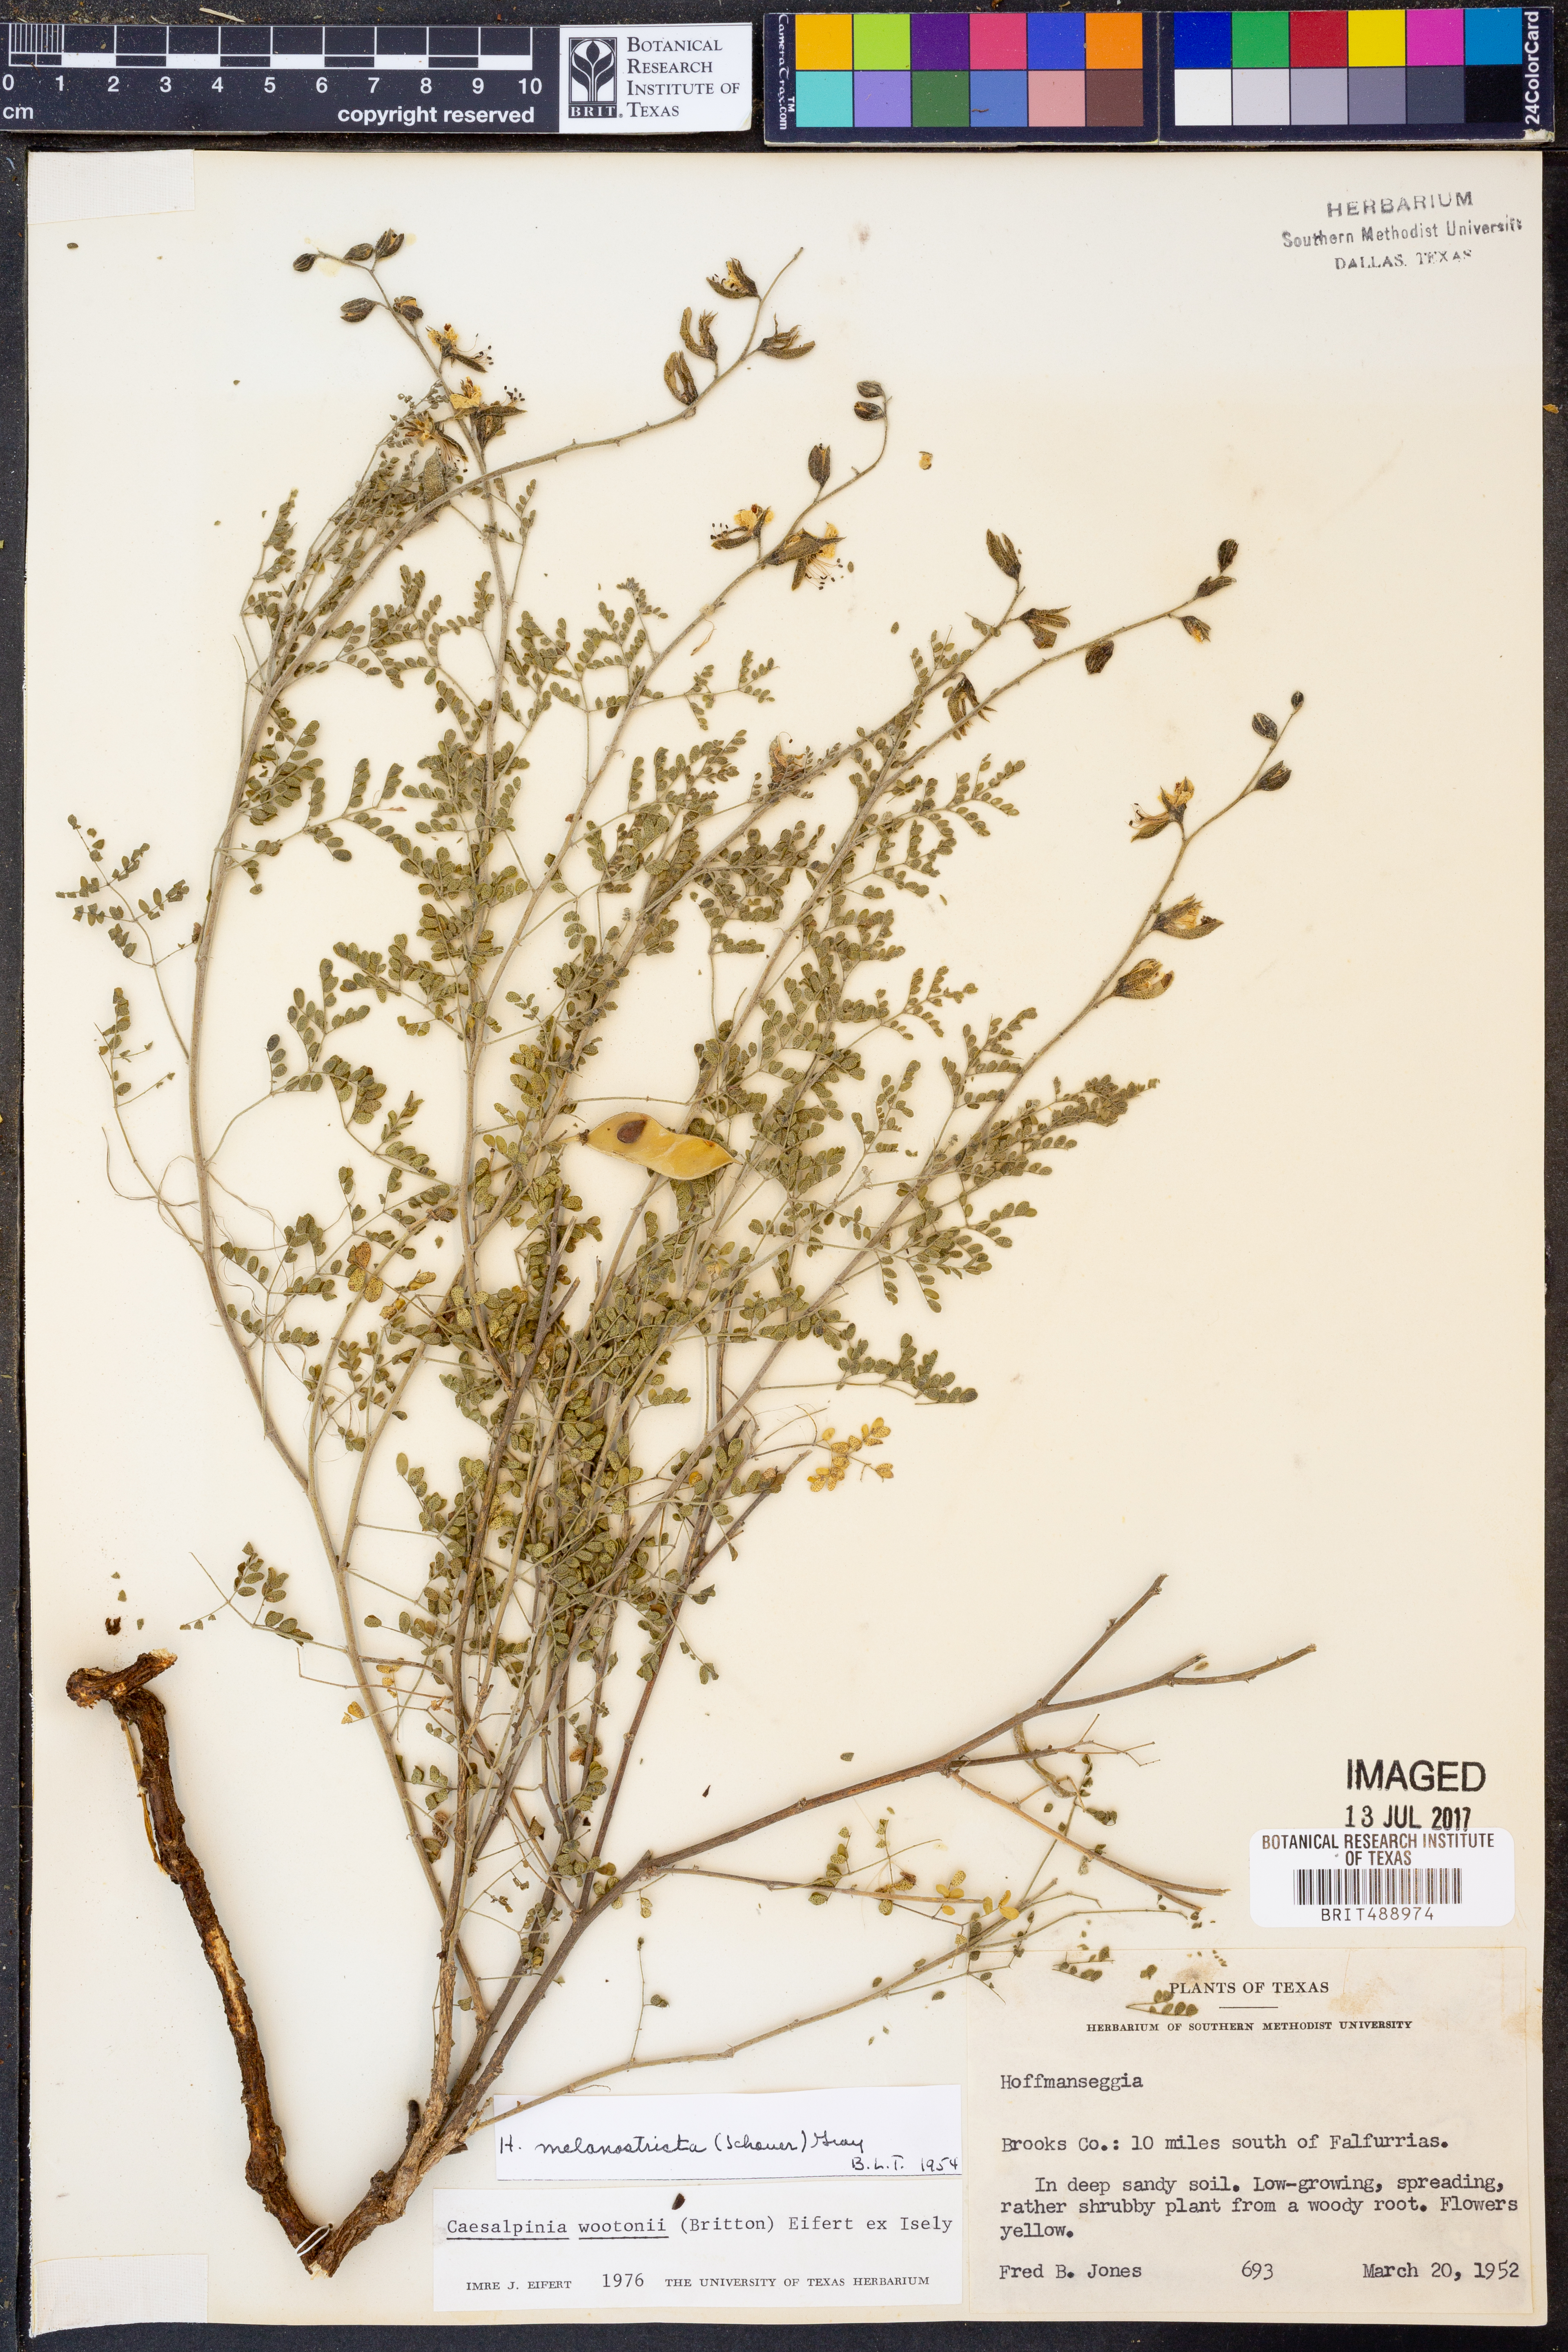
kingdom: Plantae
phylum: Tracheophyta
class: Magnoliopsida
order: Fabales
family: Fabaceae
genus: Pomaria
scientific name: Pomaria wootonii
